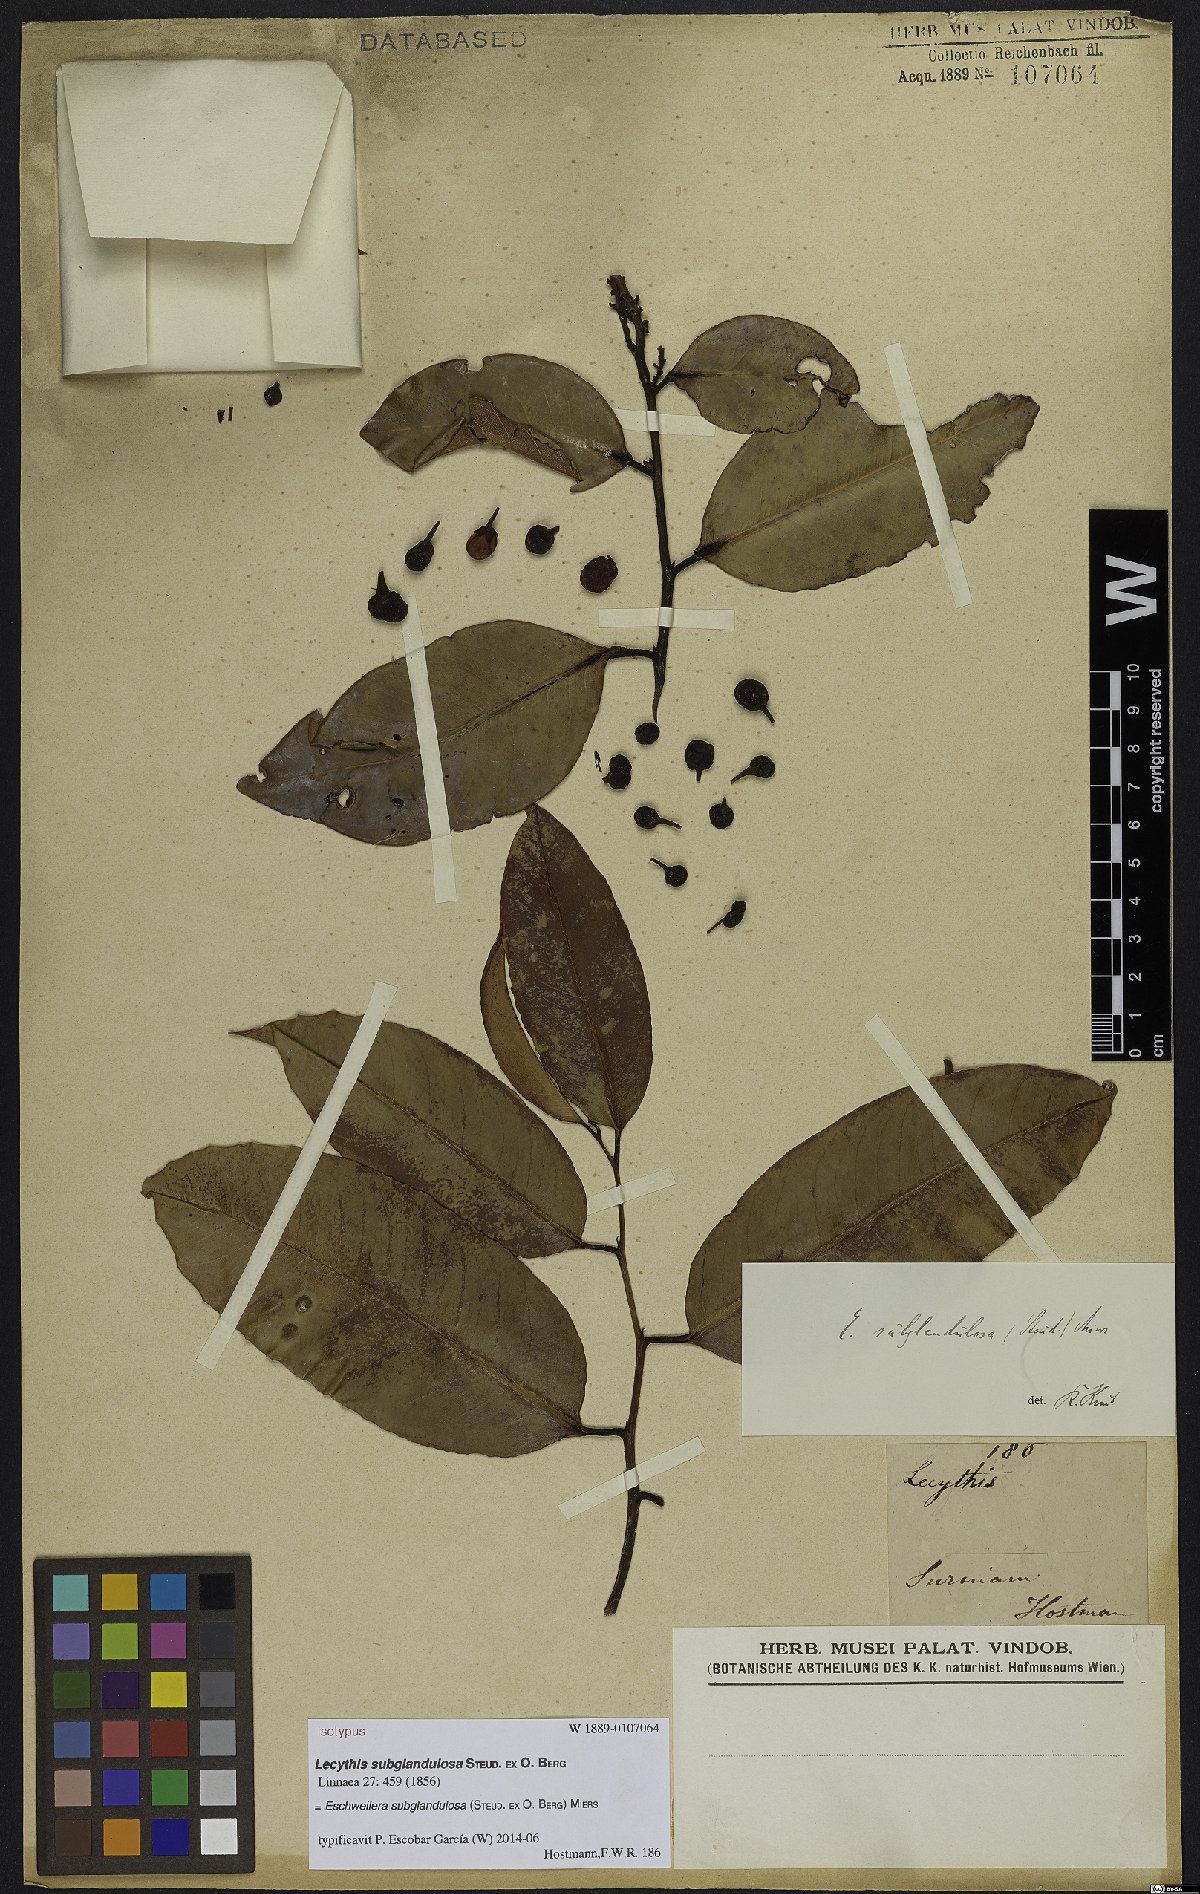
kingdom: Plantae
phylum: Tracheophyta
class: Magnoliopsida
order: Ericales
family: Lecythidaceae
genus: Eschweilera
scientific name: Eschweilera subglandulosa
